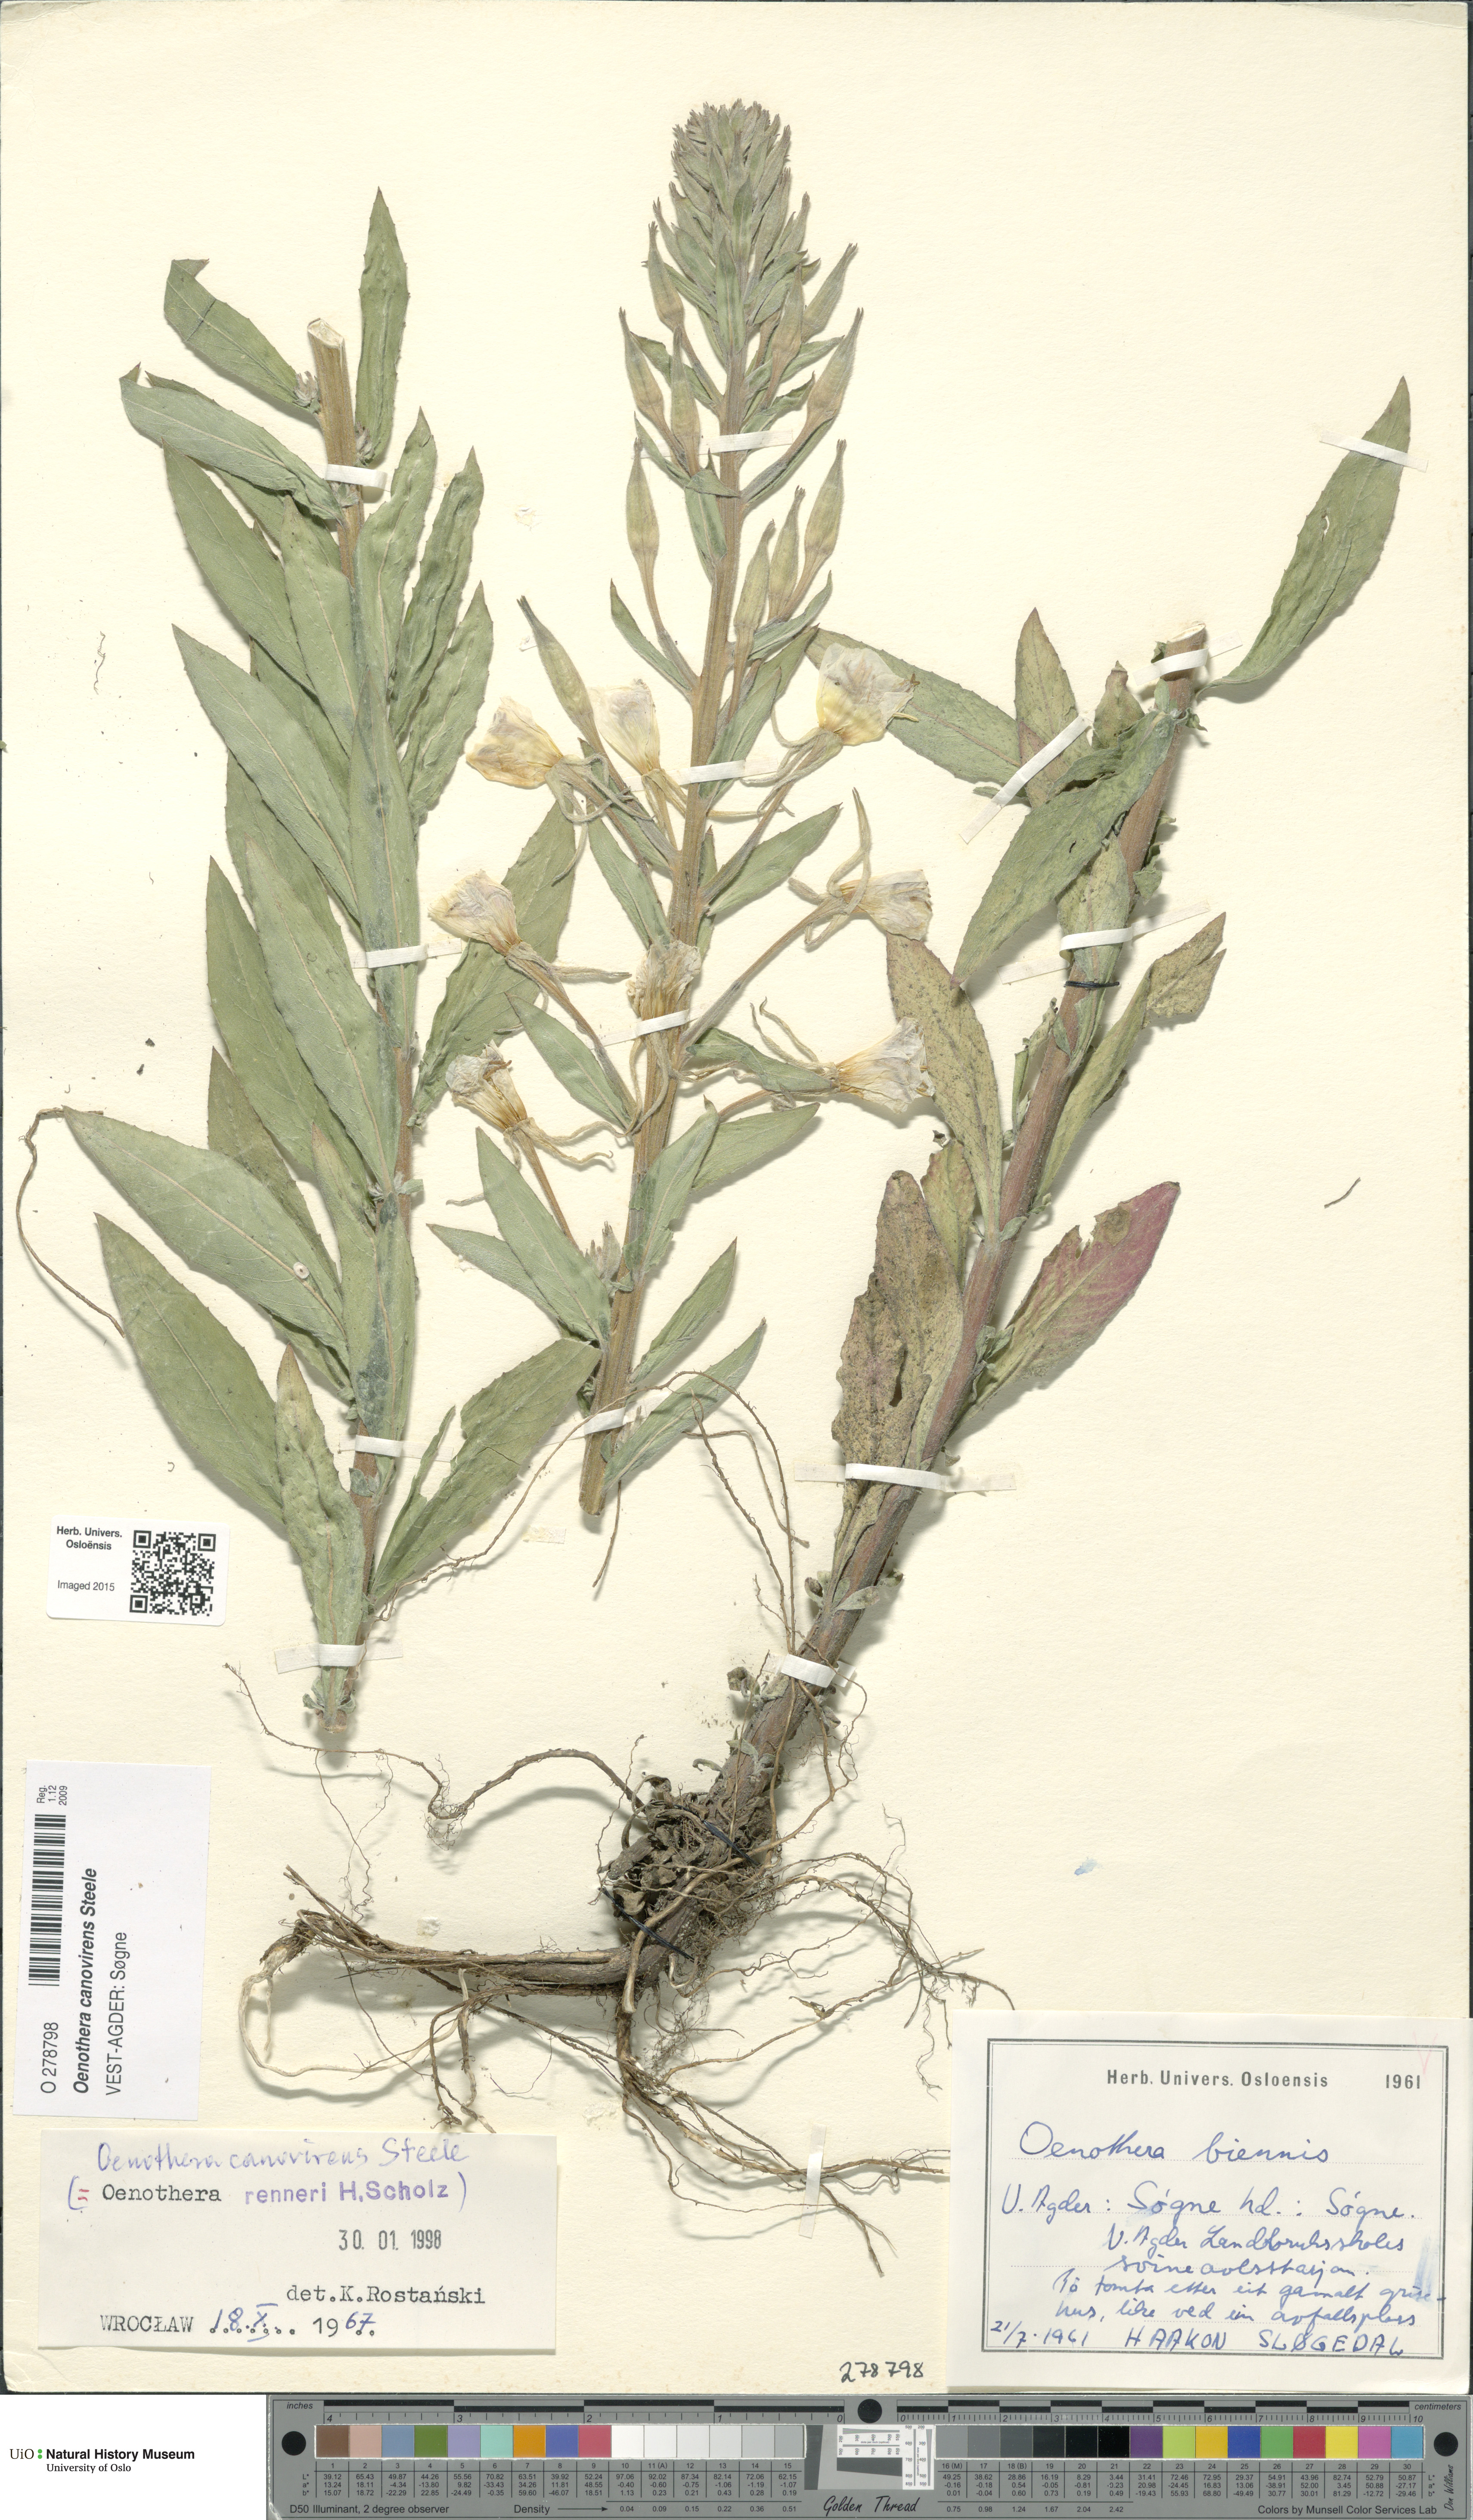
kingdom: Plantae
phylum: Tracheophyta
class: Magnoliopsida
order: Myrtales
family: Onagraceae
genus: Oenothera
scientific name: Oenothera villosa
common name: Hairy evening-primrose
